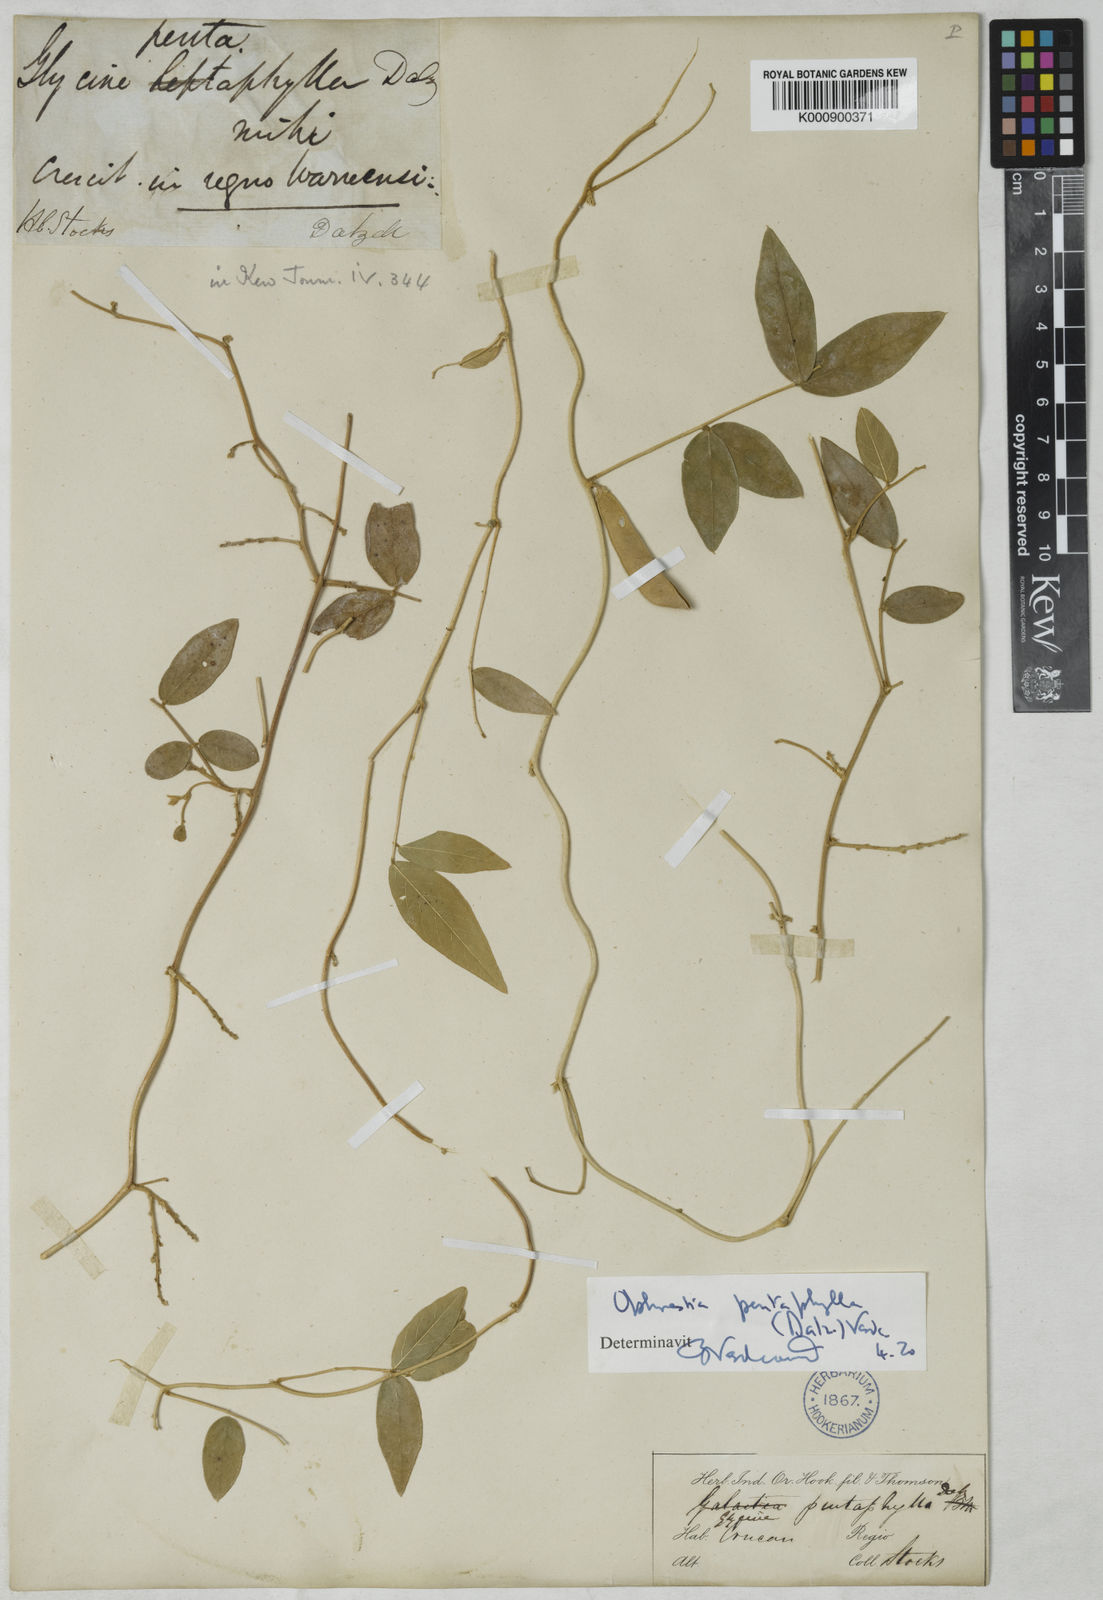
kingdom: Plantae
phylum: Tracheophyta
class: Magnoliopsida
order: Fabales
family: Fabaceae
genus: Ophrestia
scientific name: Ophrestia pentaphylla
